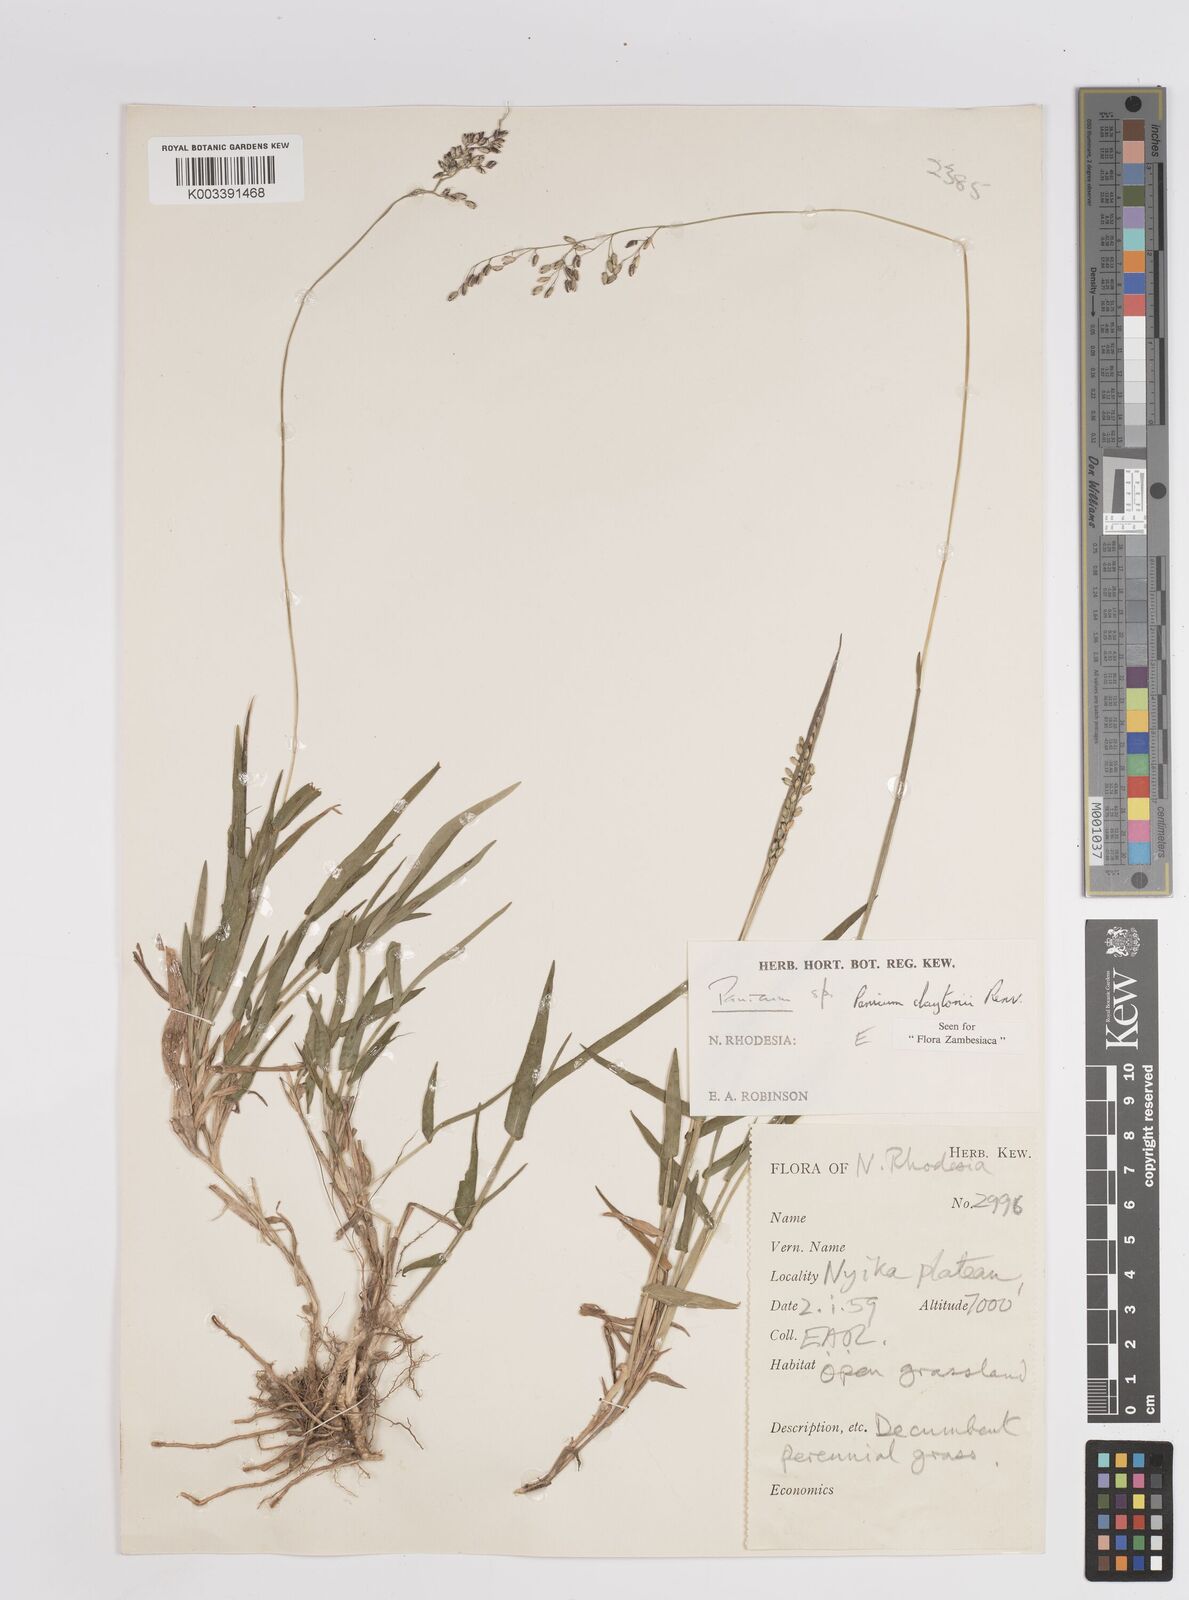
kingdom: Plantae
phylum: Tracheophyta
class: Liliopsida
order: Poales
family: Poaceae
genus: Adenochloa
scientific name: Adenochloa claytonii
